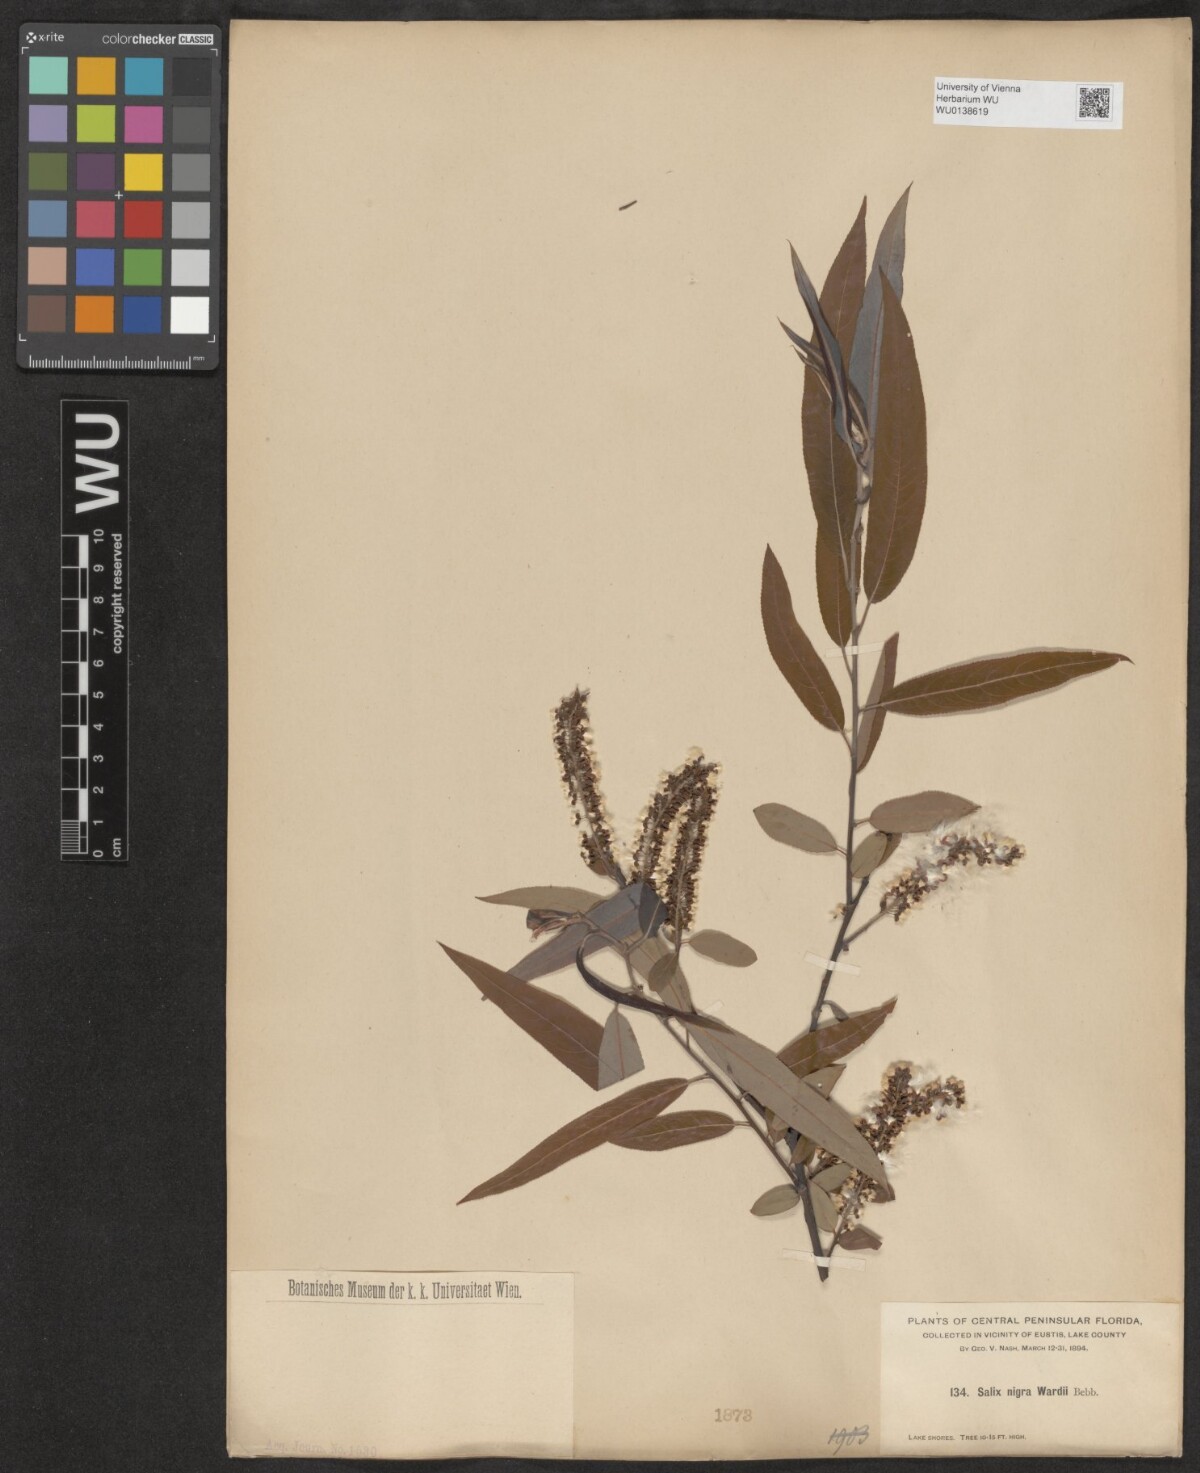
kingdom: Plantae
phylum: Tracheophyta
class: Magnoliopsida
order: Malpighiales
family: Salicaceae
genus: Salix
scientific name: Salix nigra
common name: Black willow
